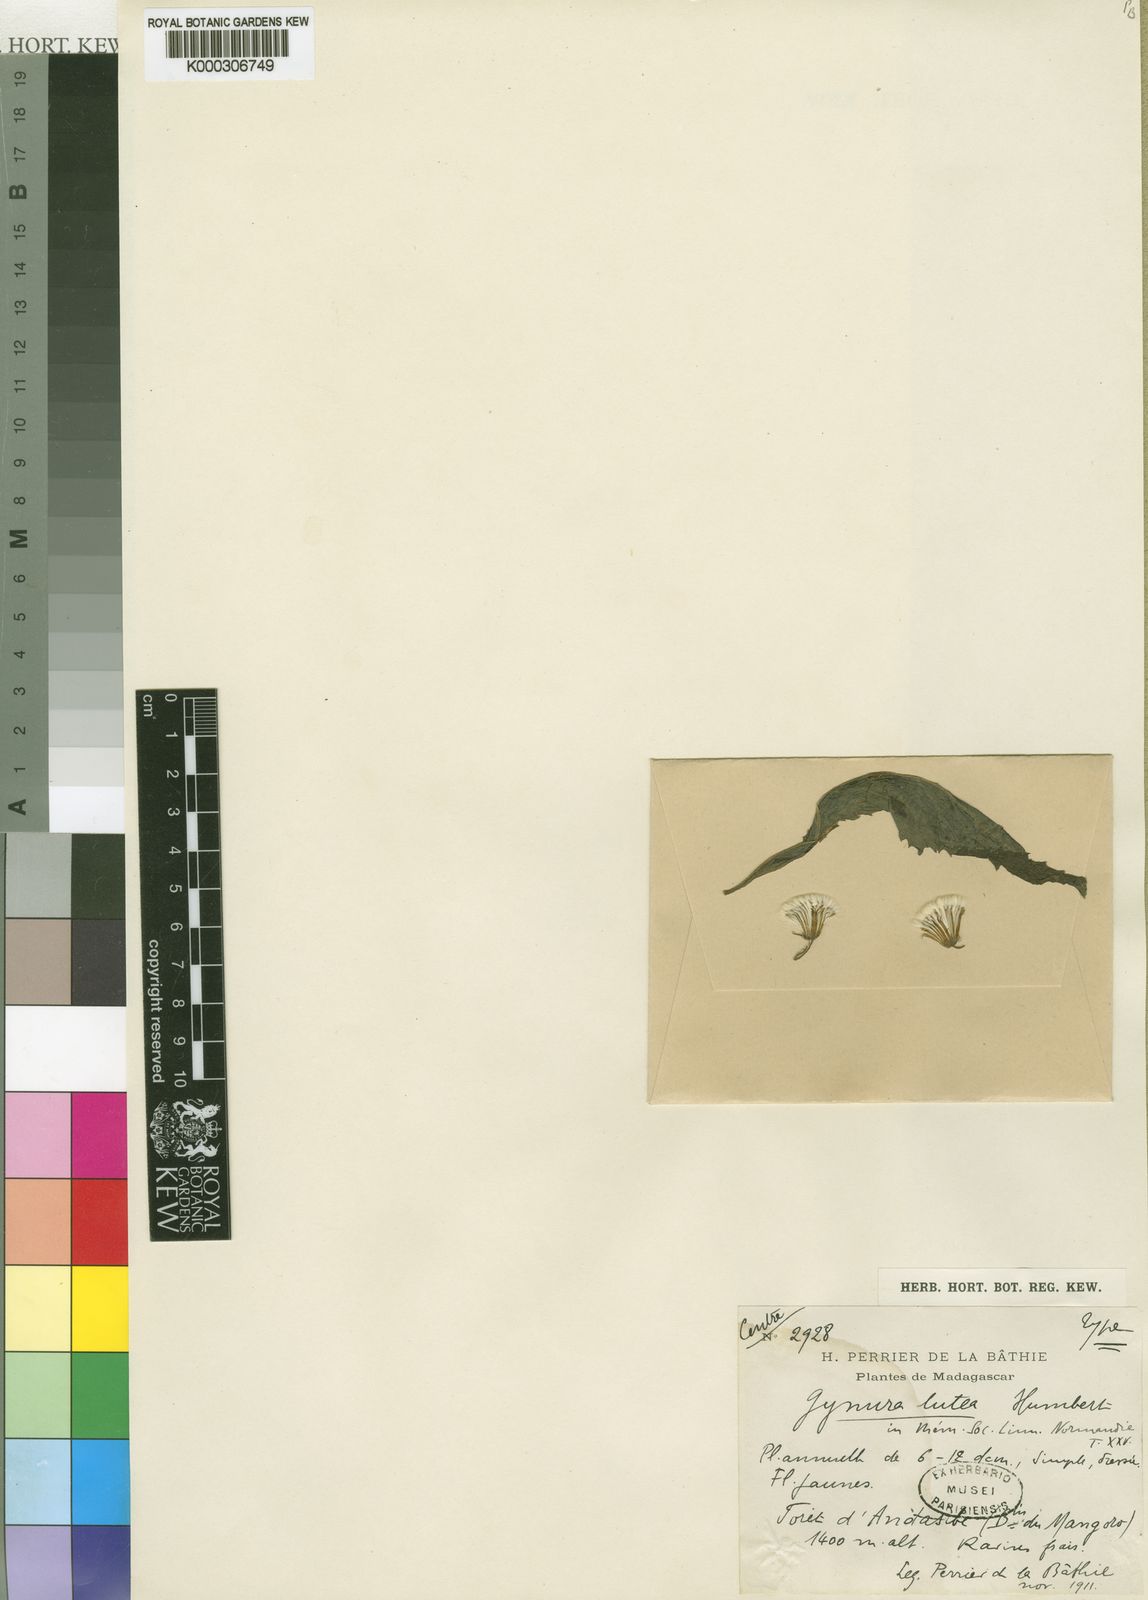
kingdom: Plantae
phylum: Tracheophyta
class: Magnoliopsida
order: Asterales
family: Asteraceae
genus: Crassocephalum
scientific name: Crassocephalum montuosum
